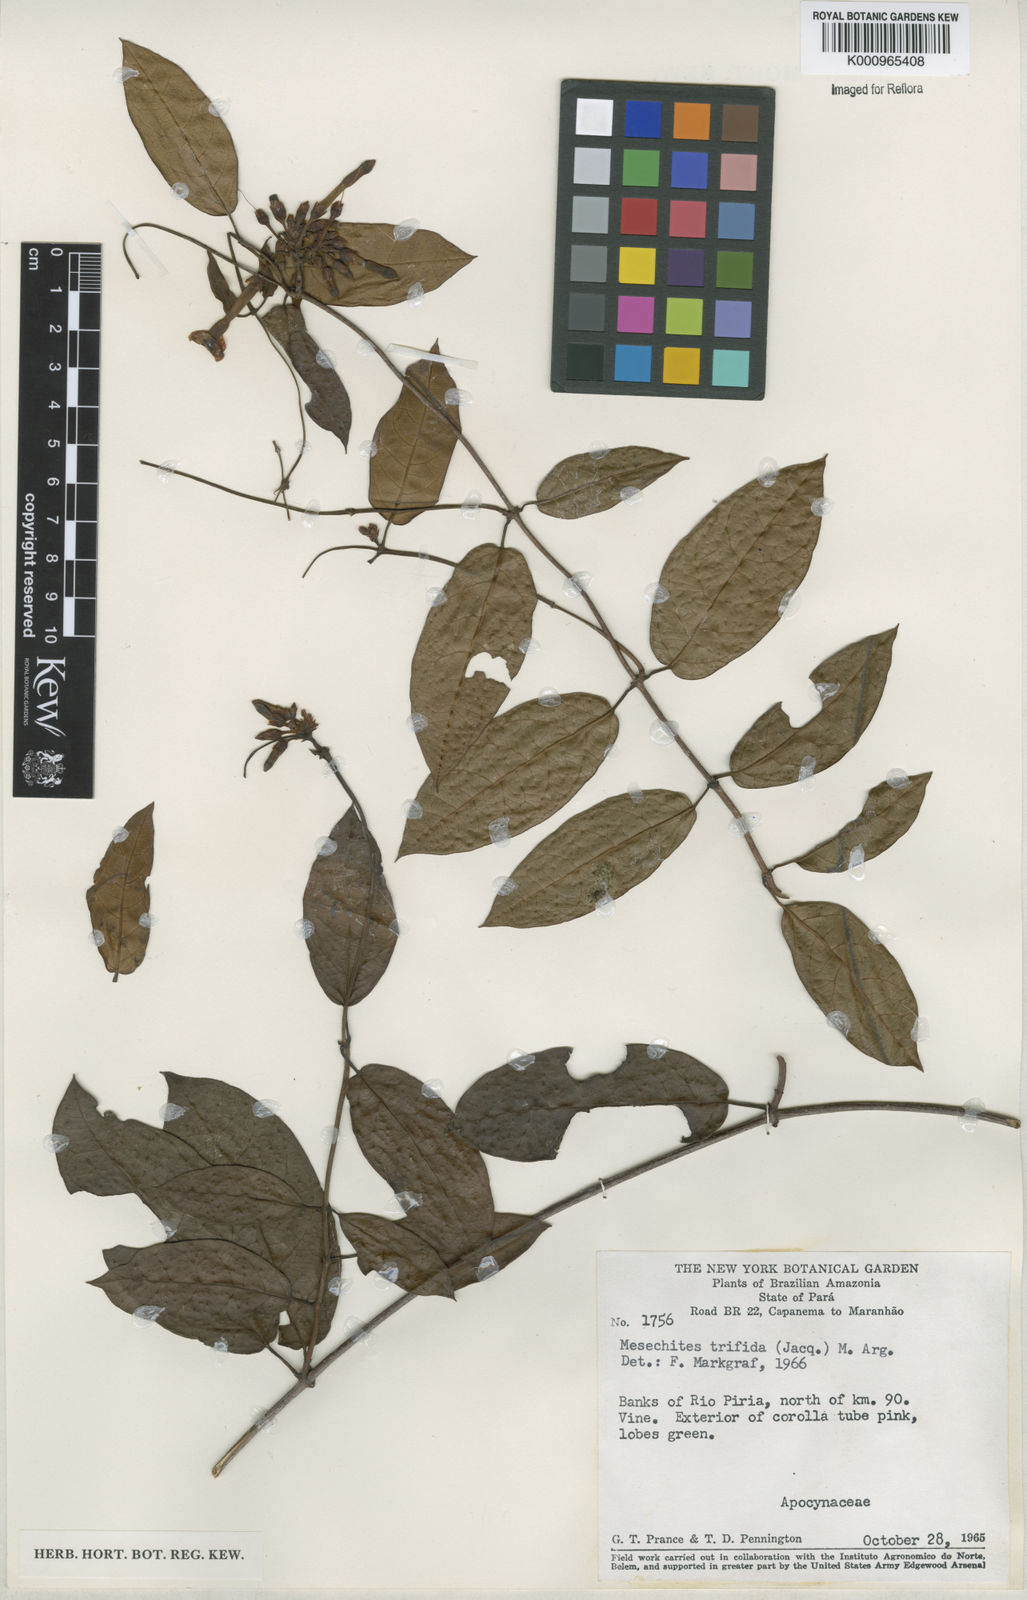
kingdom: Plantae
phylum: Tracheophyta
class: Magnoliopsida
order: Gentianales
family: Apocynaceae
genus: Mesechites
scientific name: Mesechites
